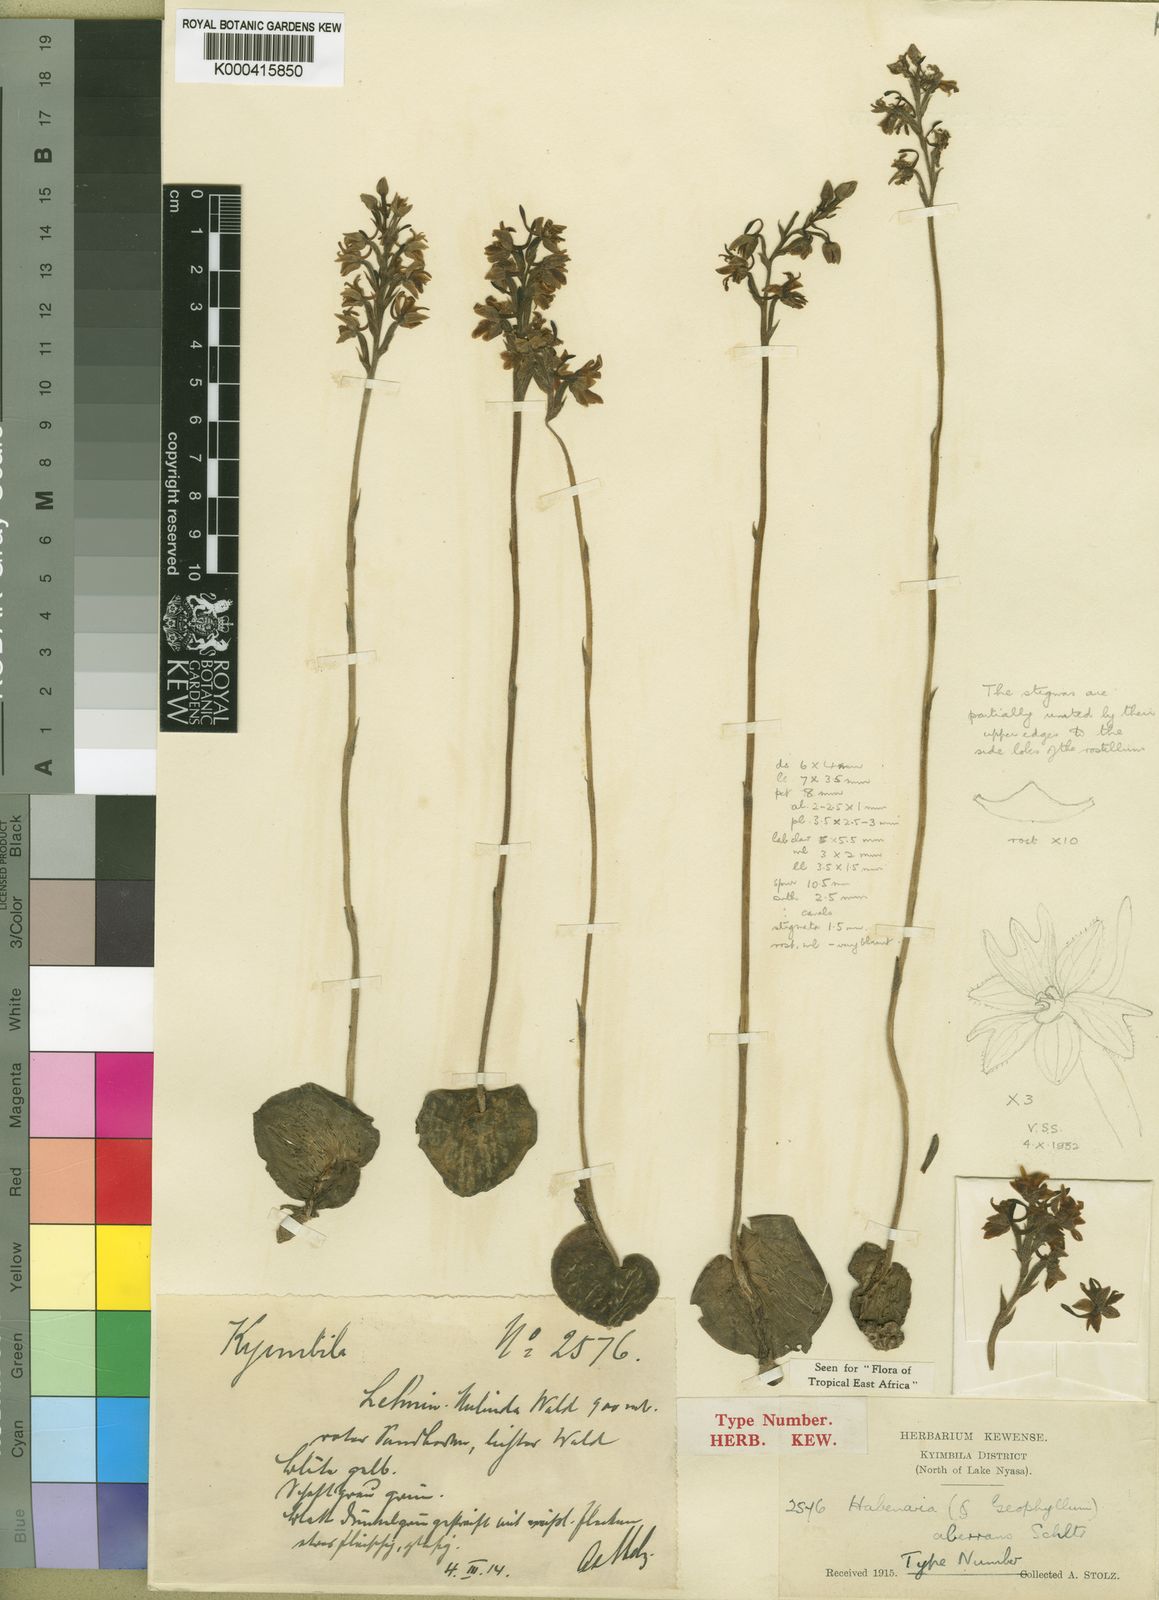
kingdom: Plantae
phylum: Tracheophyta
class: Liliopsida
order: Asparagales
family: Orchidaceae
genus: Habenaria
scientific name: Habenaria aberrans
